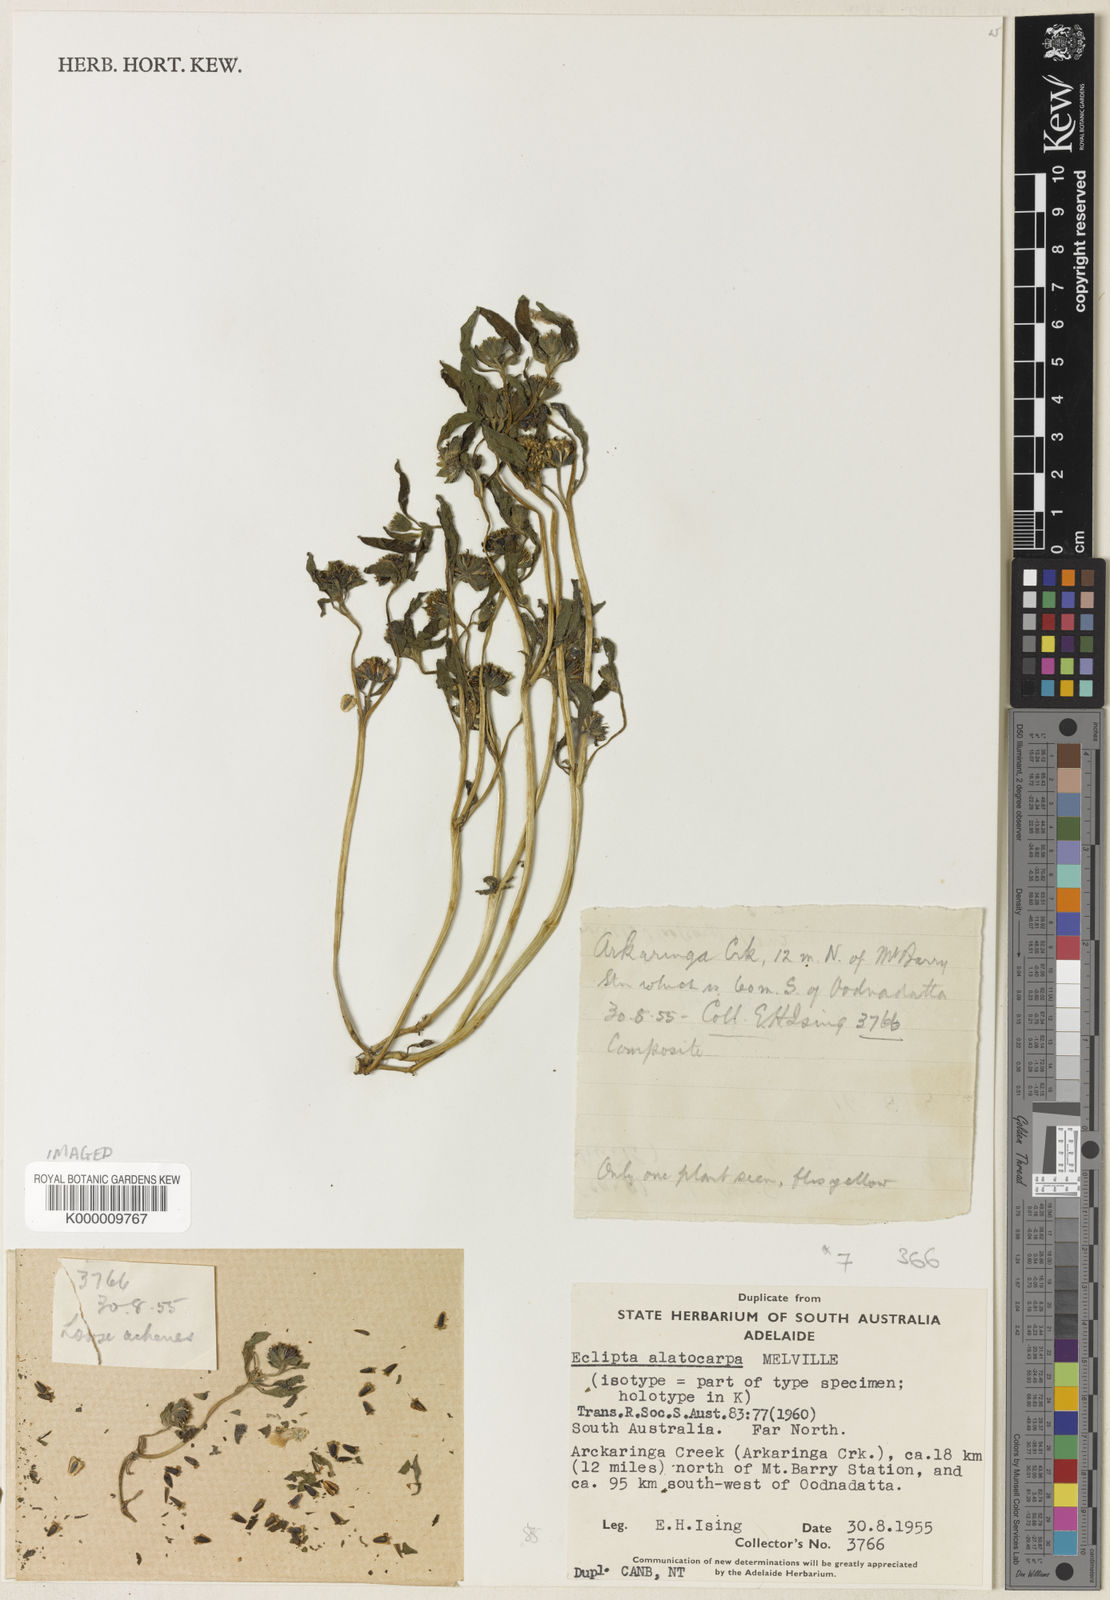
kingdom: Plantae
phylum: Tracheophyta
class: Magnoliopsida
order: Asterales
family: Asteraceae
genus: Eclipta
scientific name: Eclipta alatocarpa
